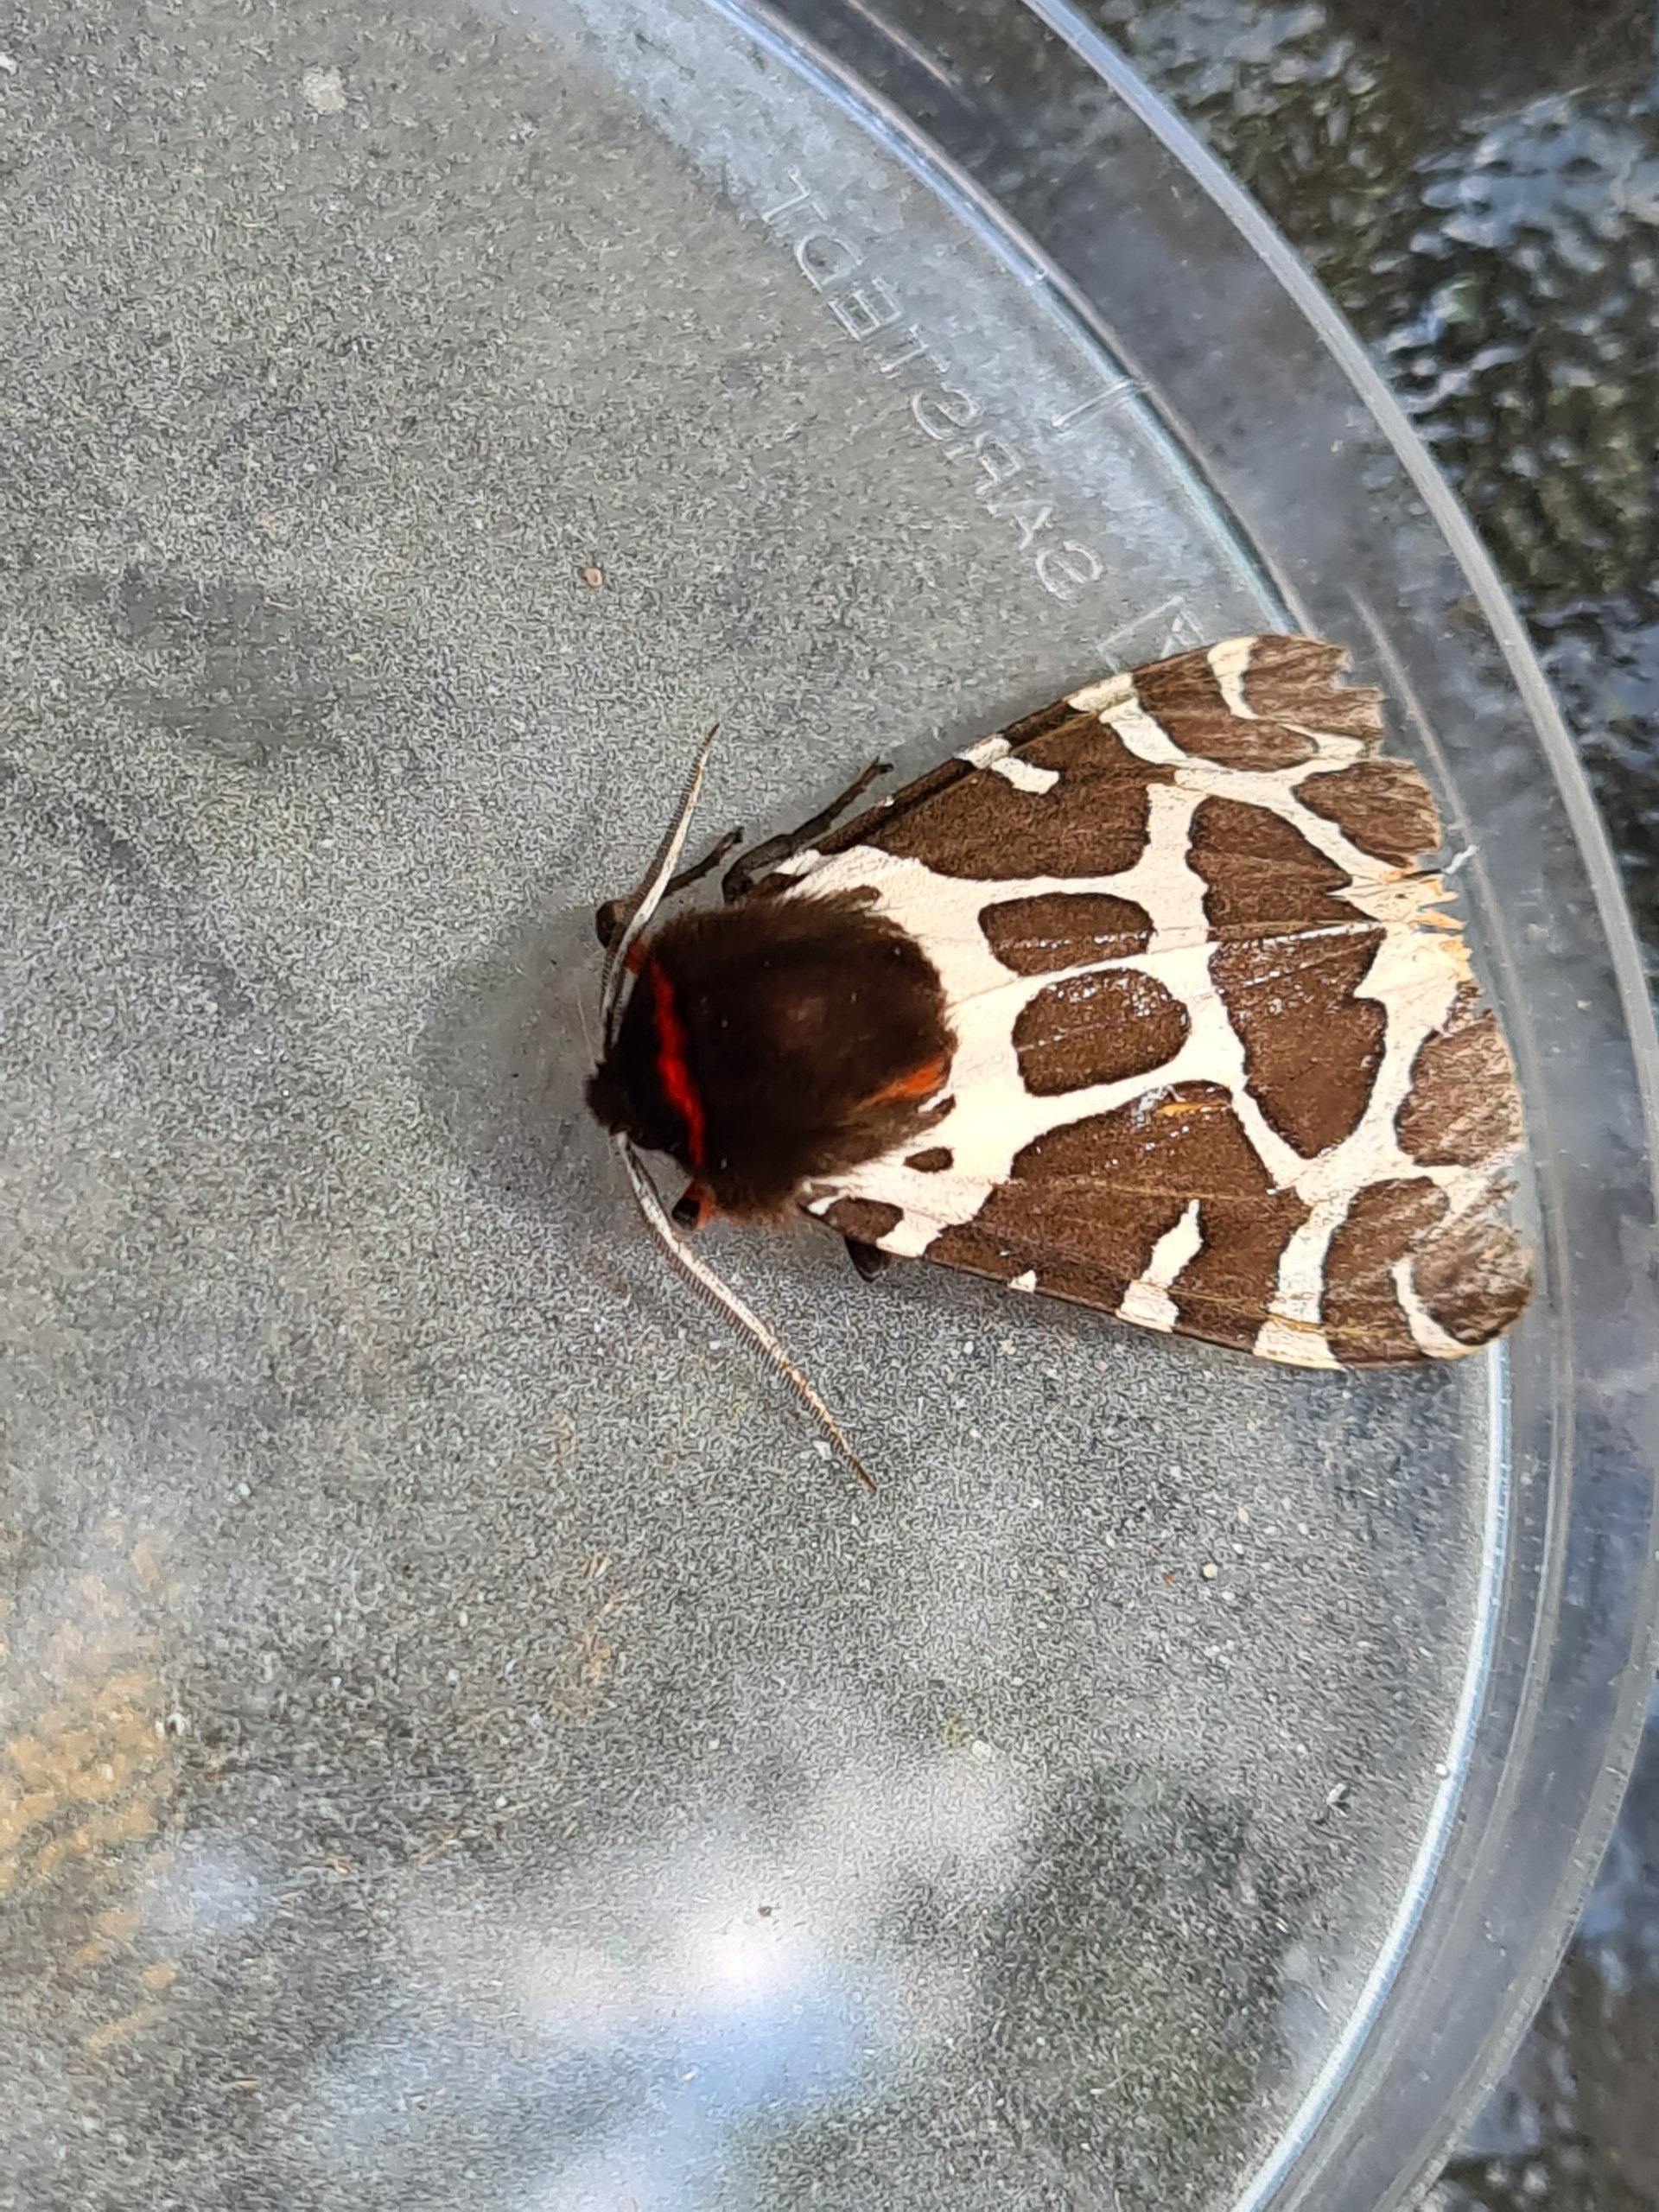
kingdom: Animalia
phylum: Arthropoda
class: Insecta
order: Lepidoptera
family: Erebidae
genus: Arctia
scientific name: Arctia caja
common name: Brun bjørn
